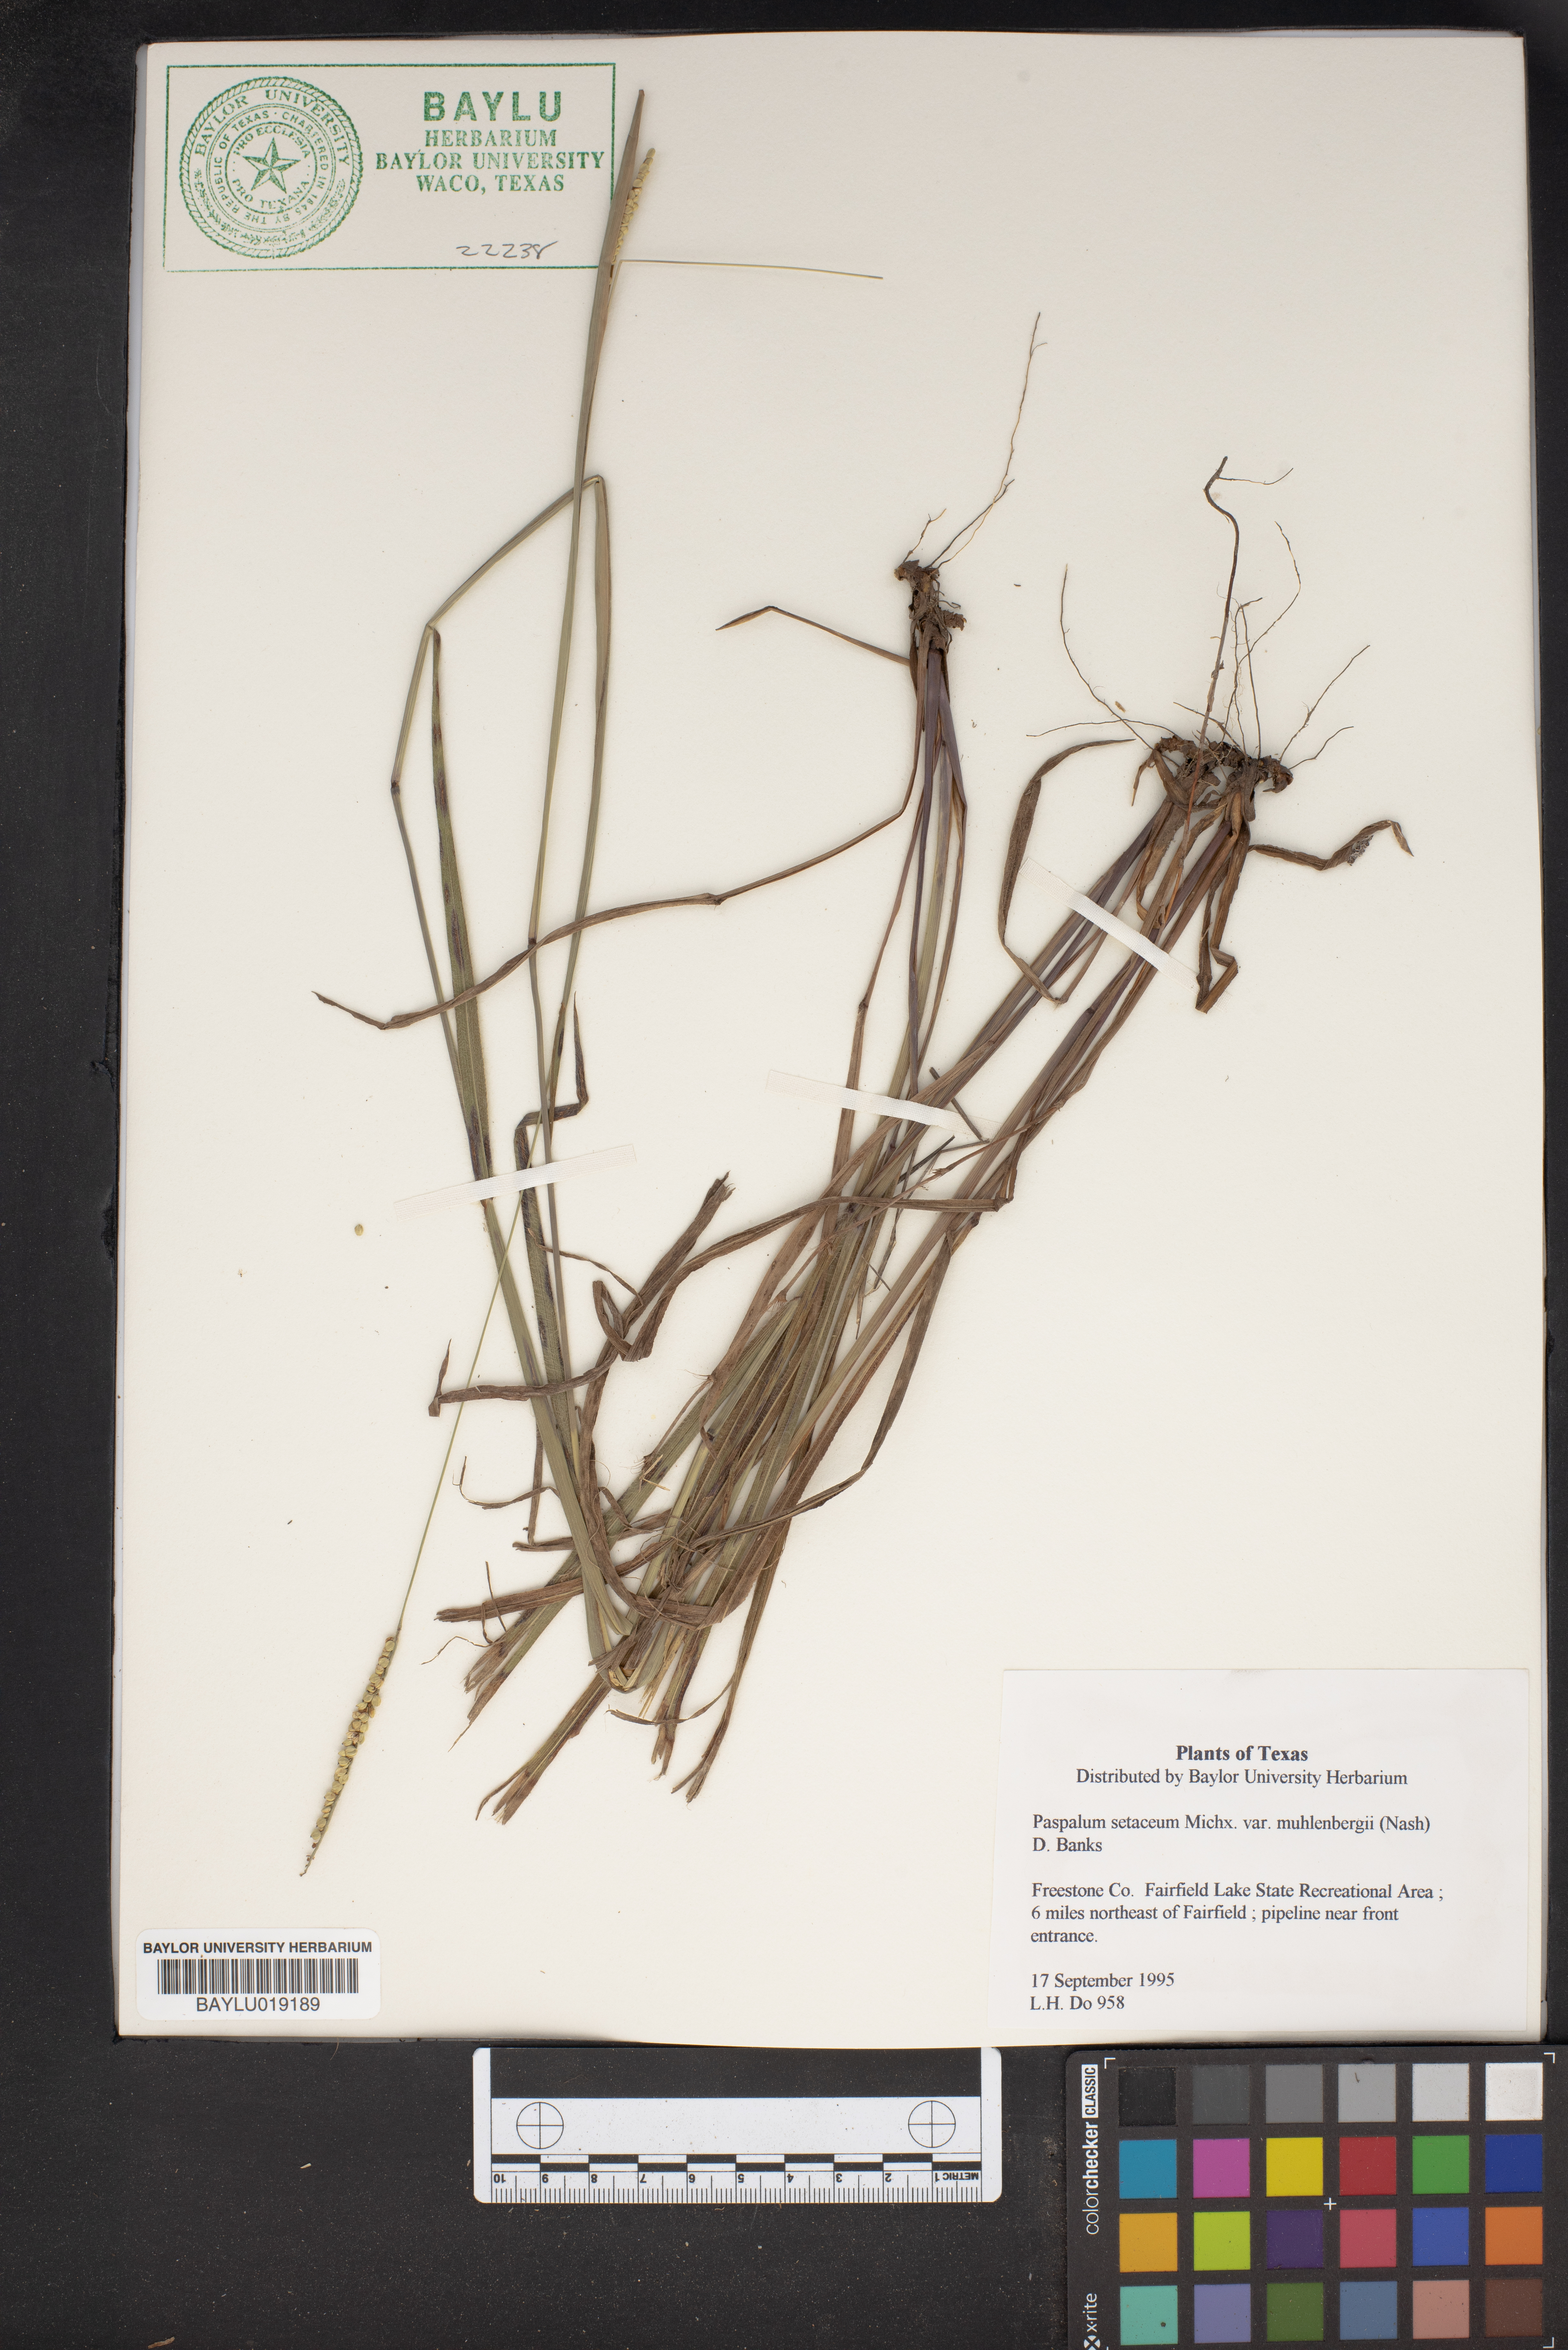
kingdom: Plantae
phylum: Tracheophyta
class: Liliopsida
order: Poales
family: Poaceae
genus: Paspalum
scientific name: Paspalum setaceum
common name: Slender paspalum
